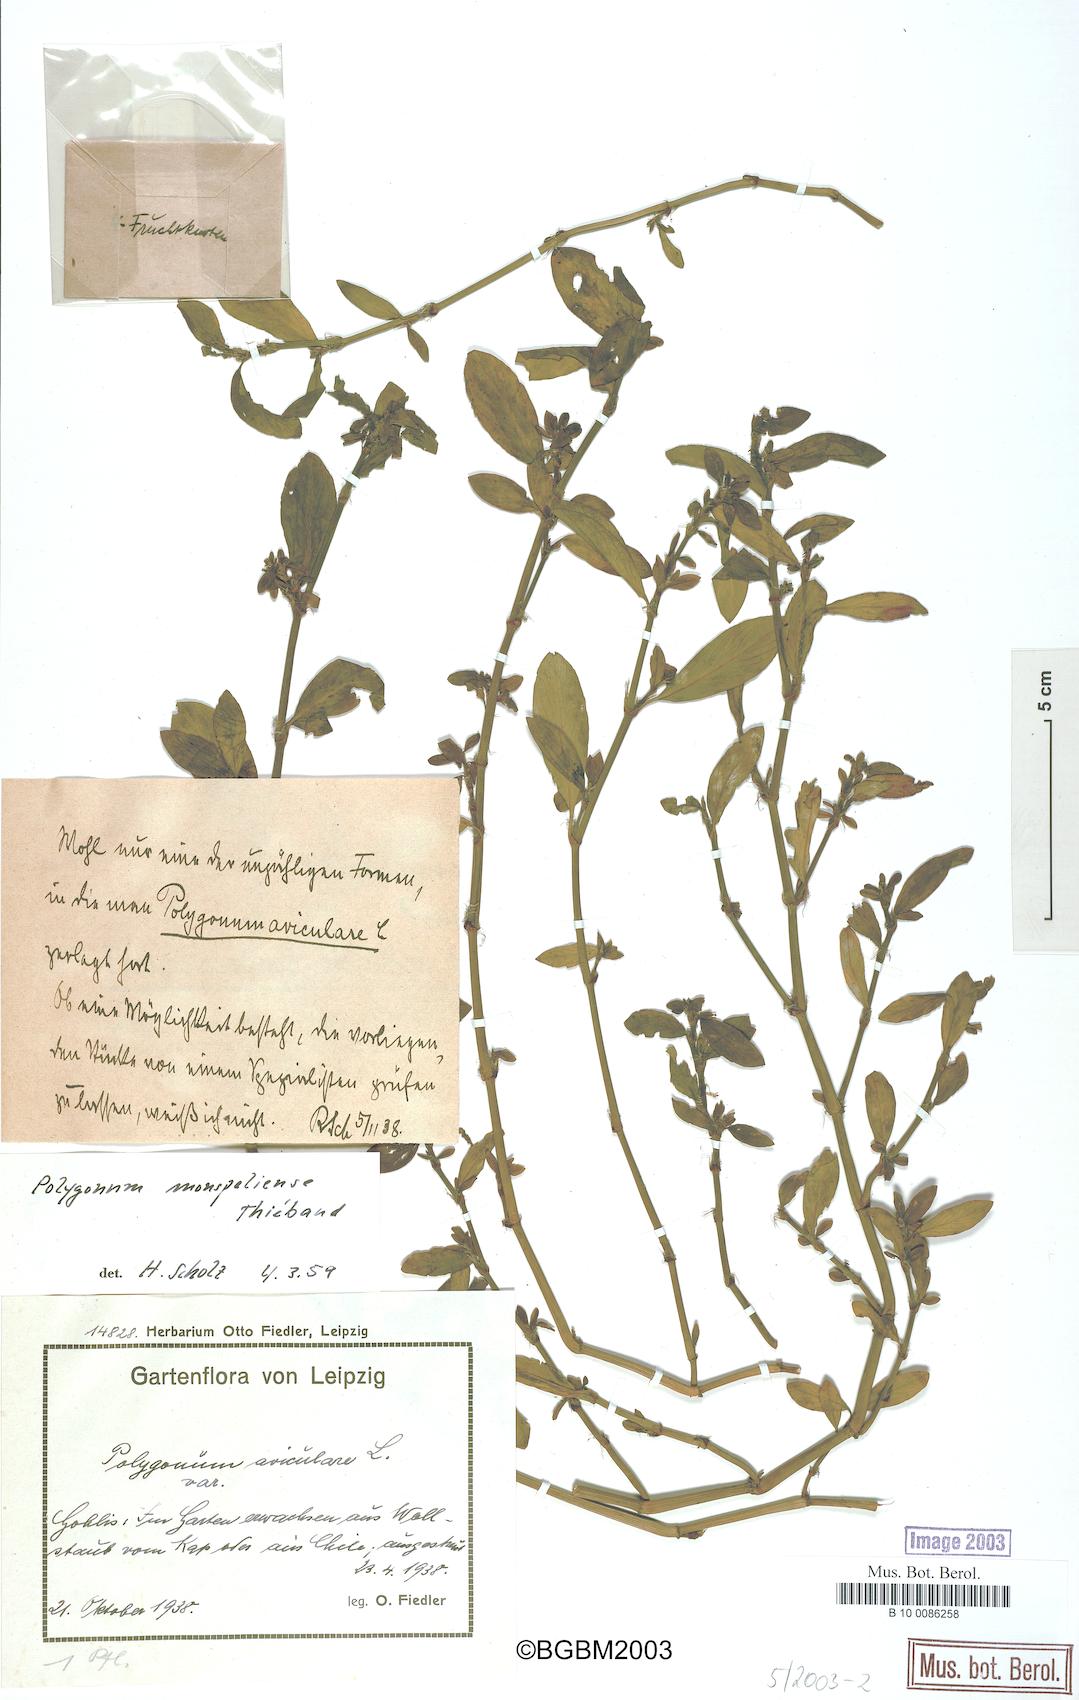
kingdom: Plantae
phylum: Tracheophyta
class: Magnoliopsida
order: Caryophyllales
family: Polygonaceae
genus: Polygonum
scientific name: Polygonum
